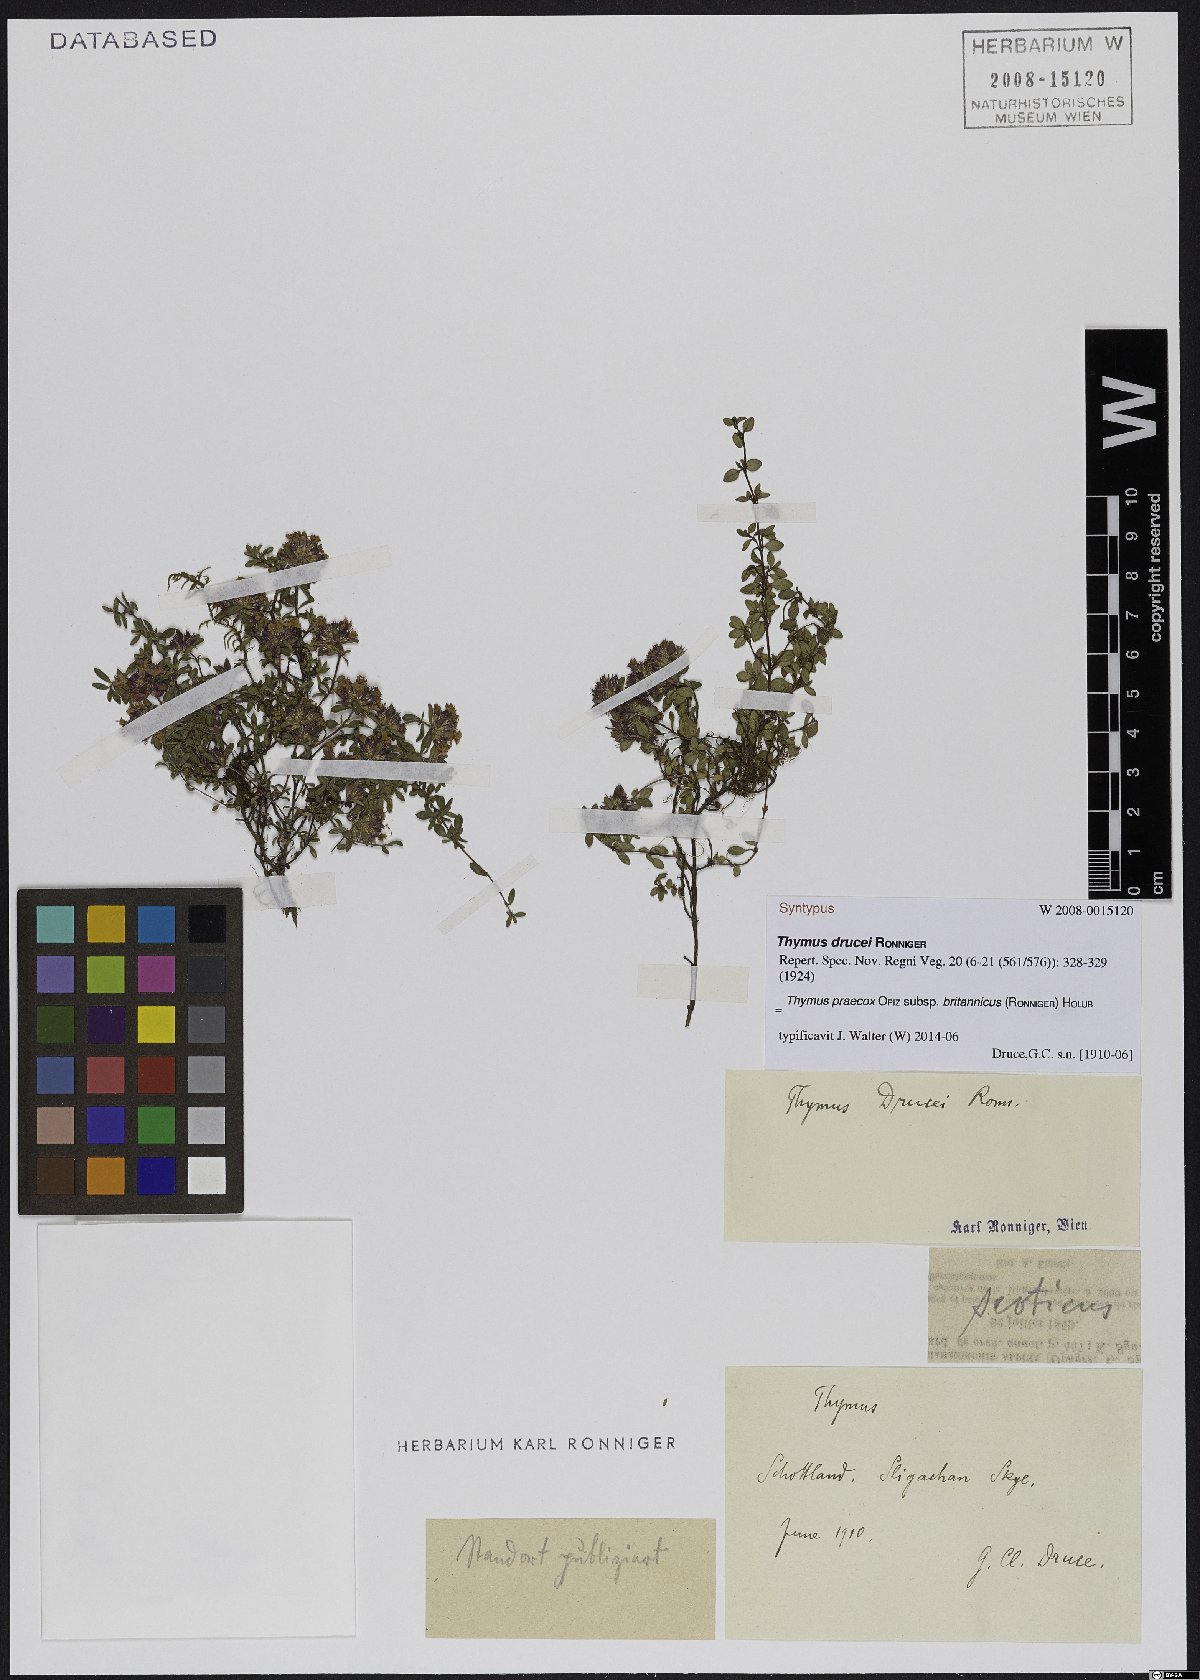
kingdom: Plantae
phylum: Tracheophyta
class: Magnoliopsida
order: Lamiales
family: Lamiaceae
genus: Thymus
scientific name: Thymus praecox
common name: Wild thyme
